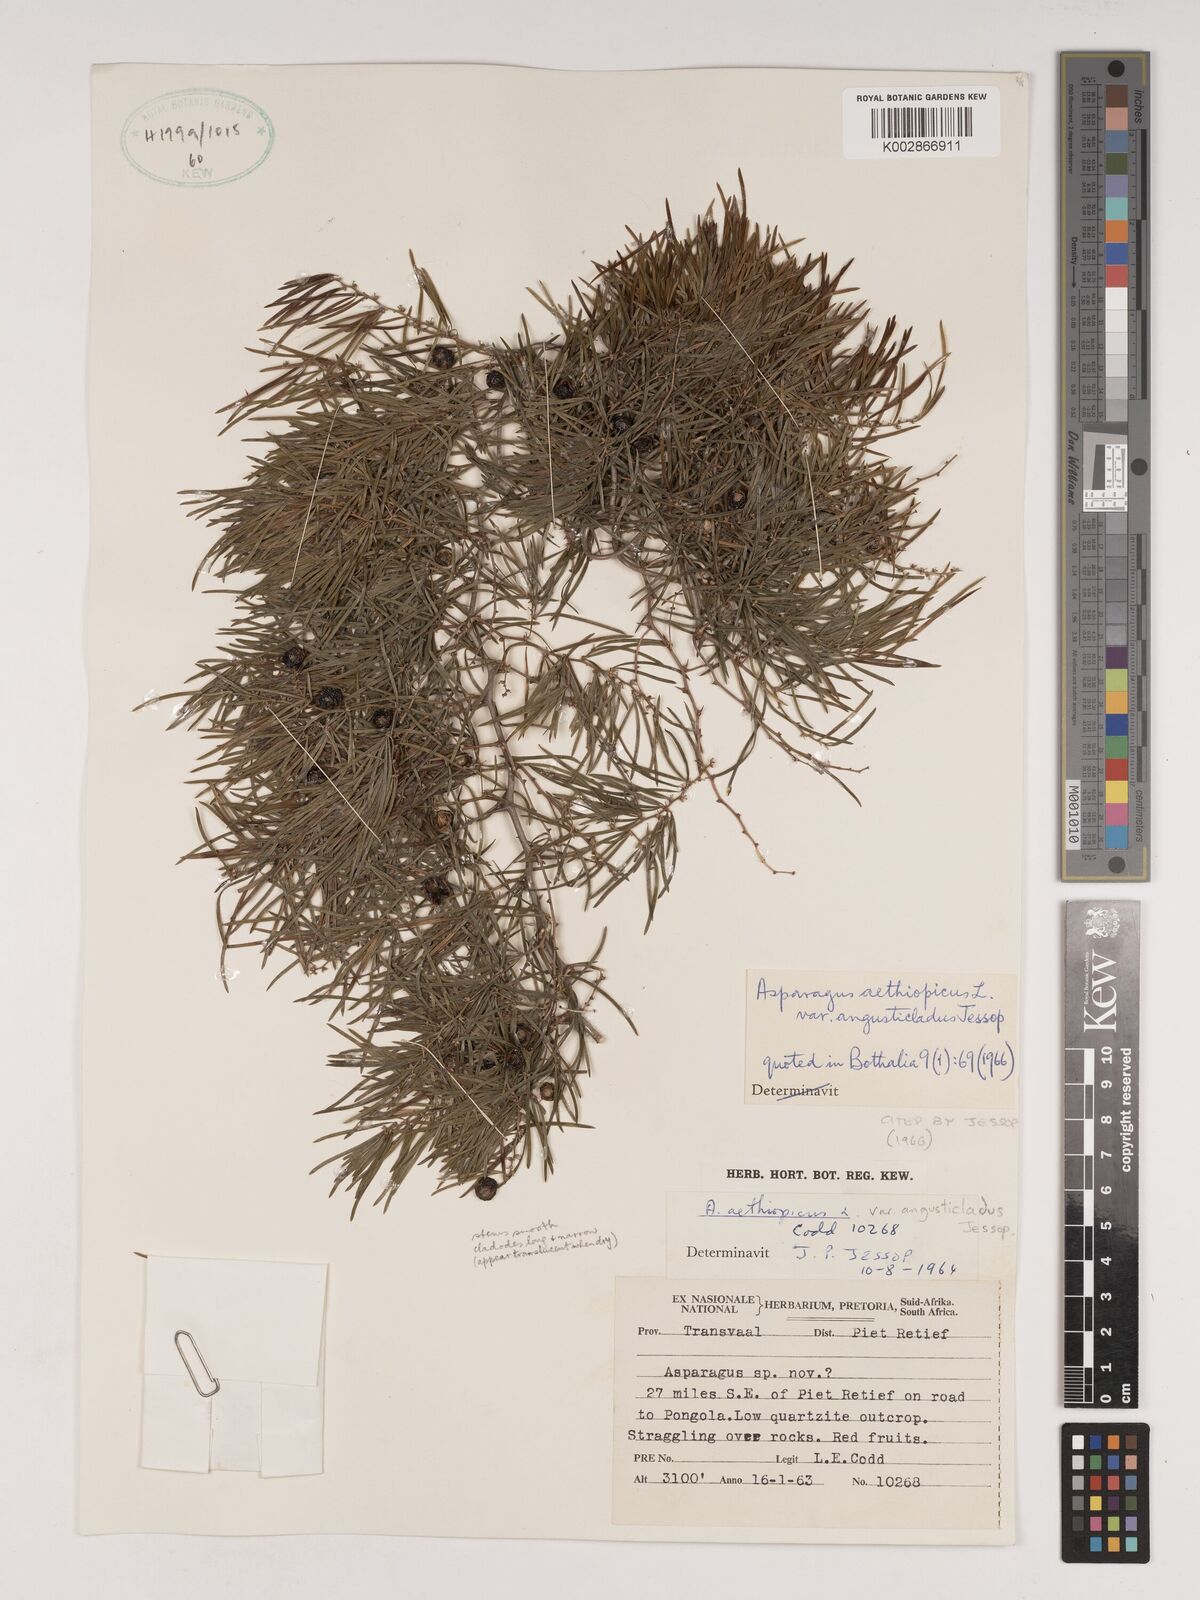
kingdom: Plantae
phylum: Tracheophyta
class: Liliopsida
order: Asparagales
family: Asparagaceae
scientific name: Asparagaceae
